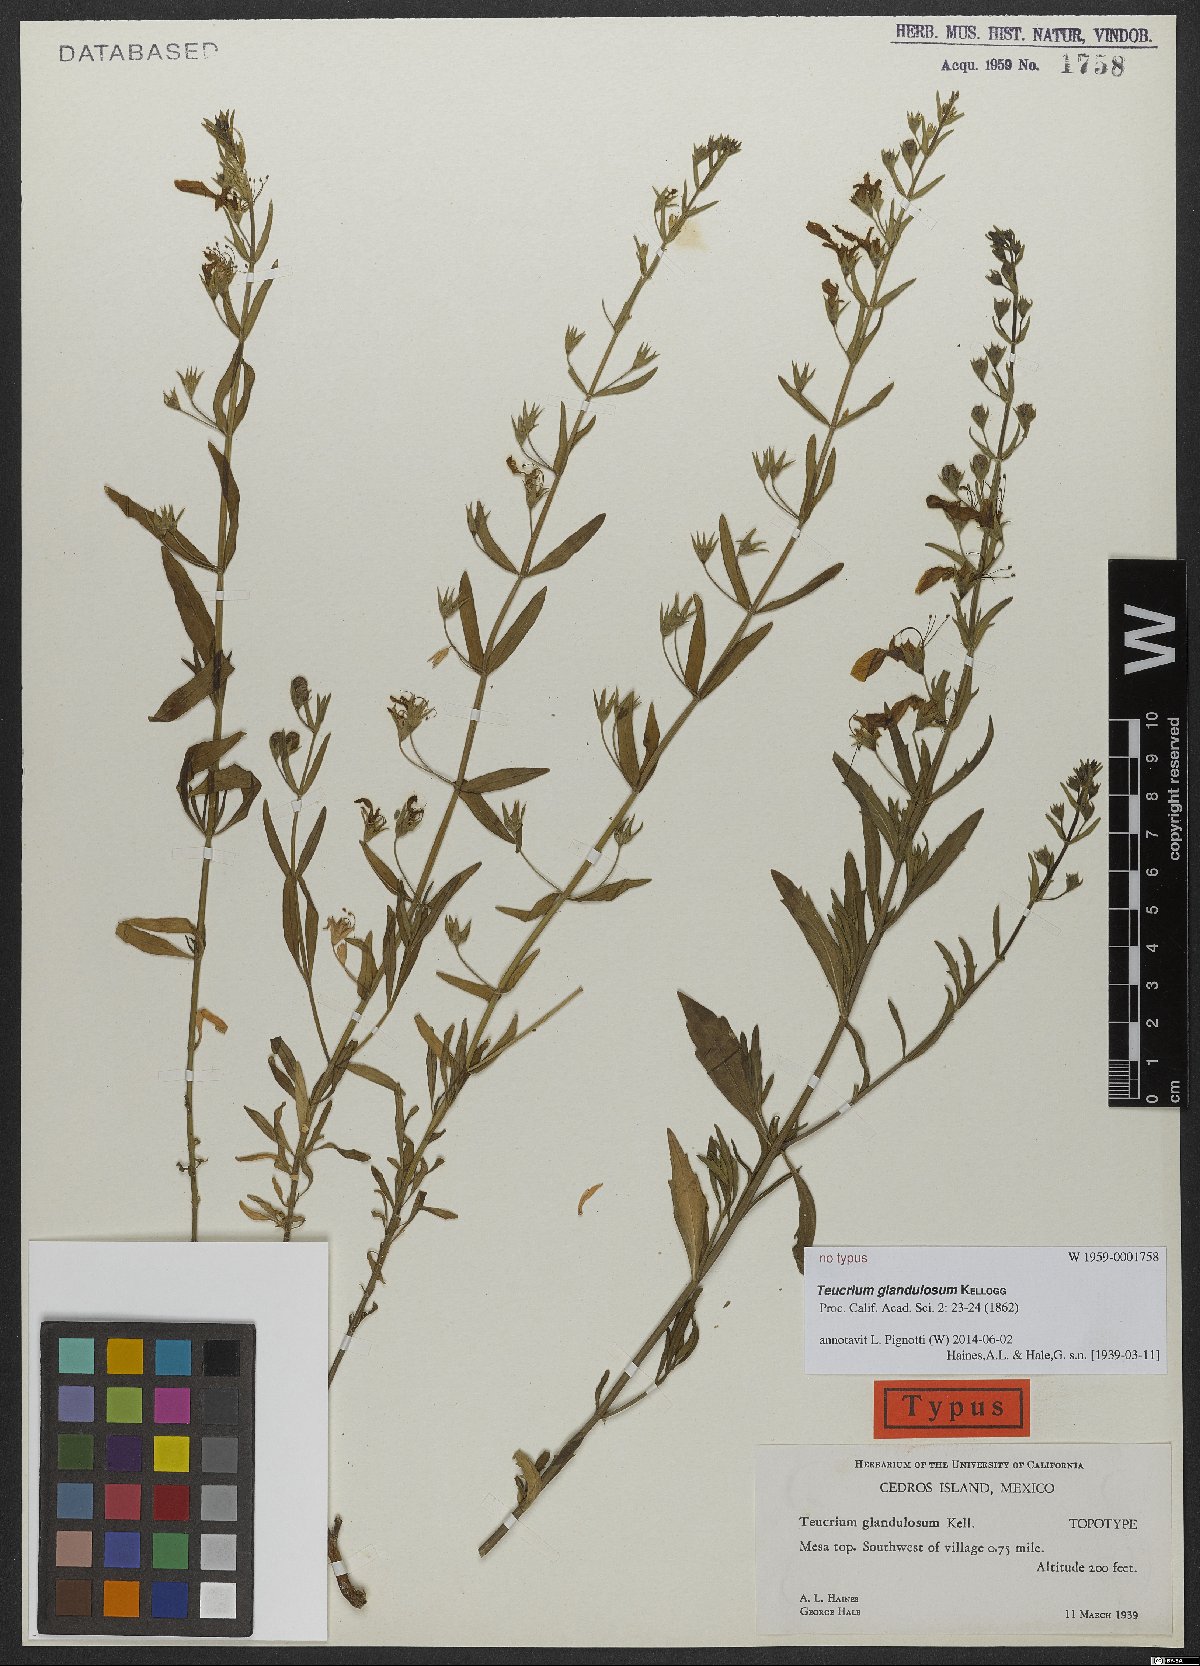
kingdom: Plantae
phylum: Tracheophyta
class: Magnoliopsida
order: Lamiales
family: Lamiaceae
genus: Teucrium
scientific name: Teucrium glandulosum
